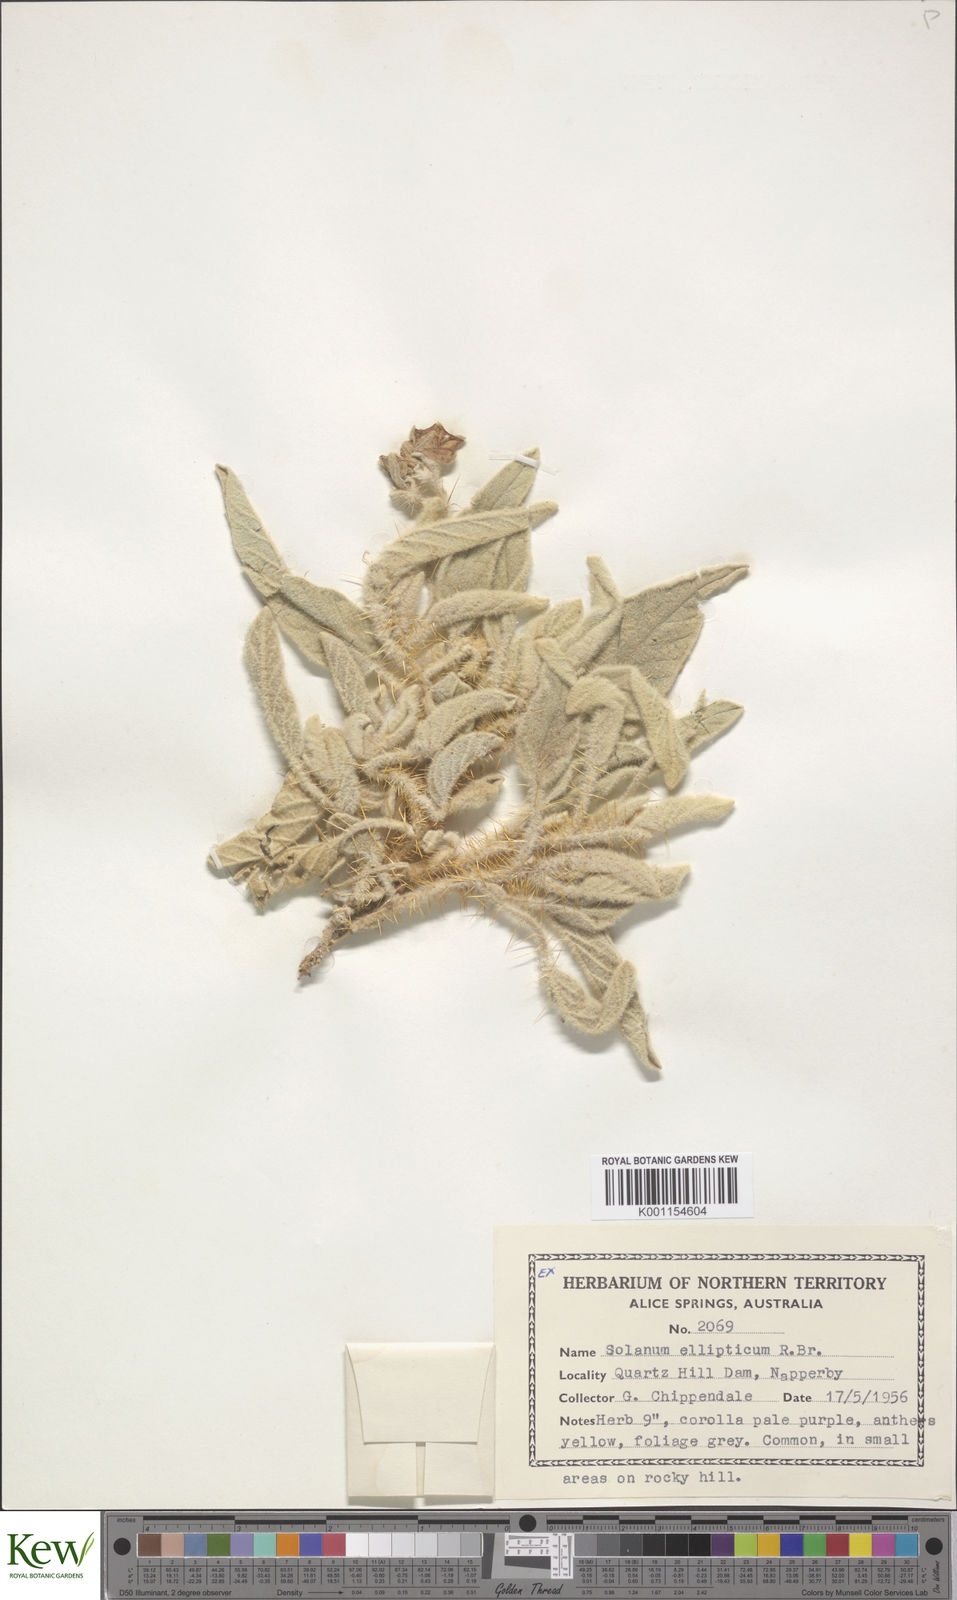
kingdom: Plantae
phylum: Tracheophyta
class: Magnoliopsida
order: Solanales
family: Solanaceae
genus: Solanum
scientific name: Solanum ellipticum
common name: Potato-bush
